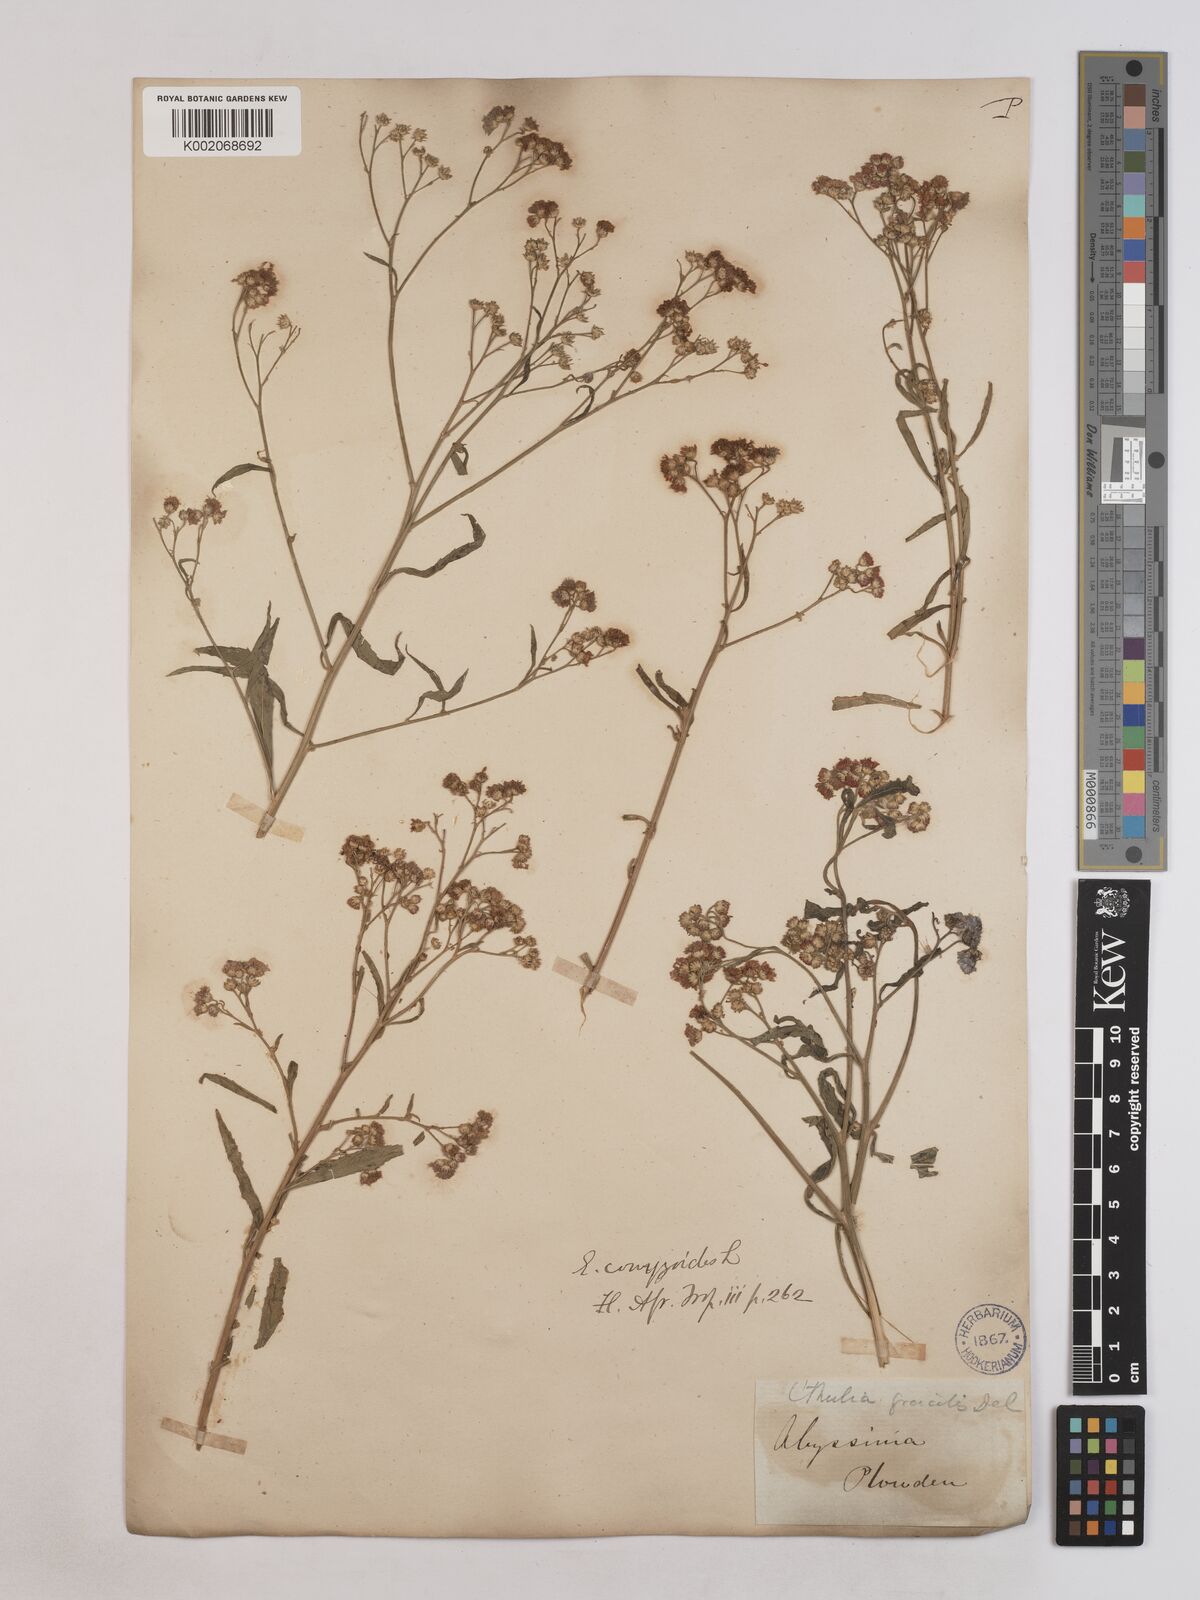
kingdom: Plantae
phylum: Tracheophyta
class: Magnoliopsida
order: Asterales
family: Asteraceae
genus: Ethulia
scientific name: Ethulia gracilis
